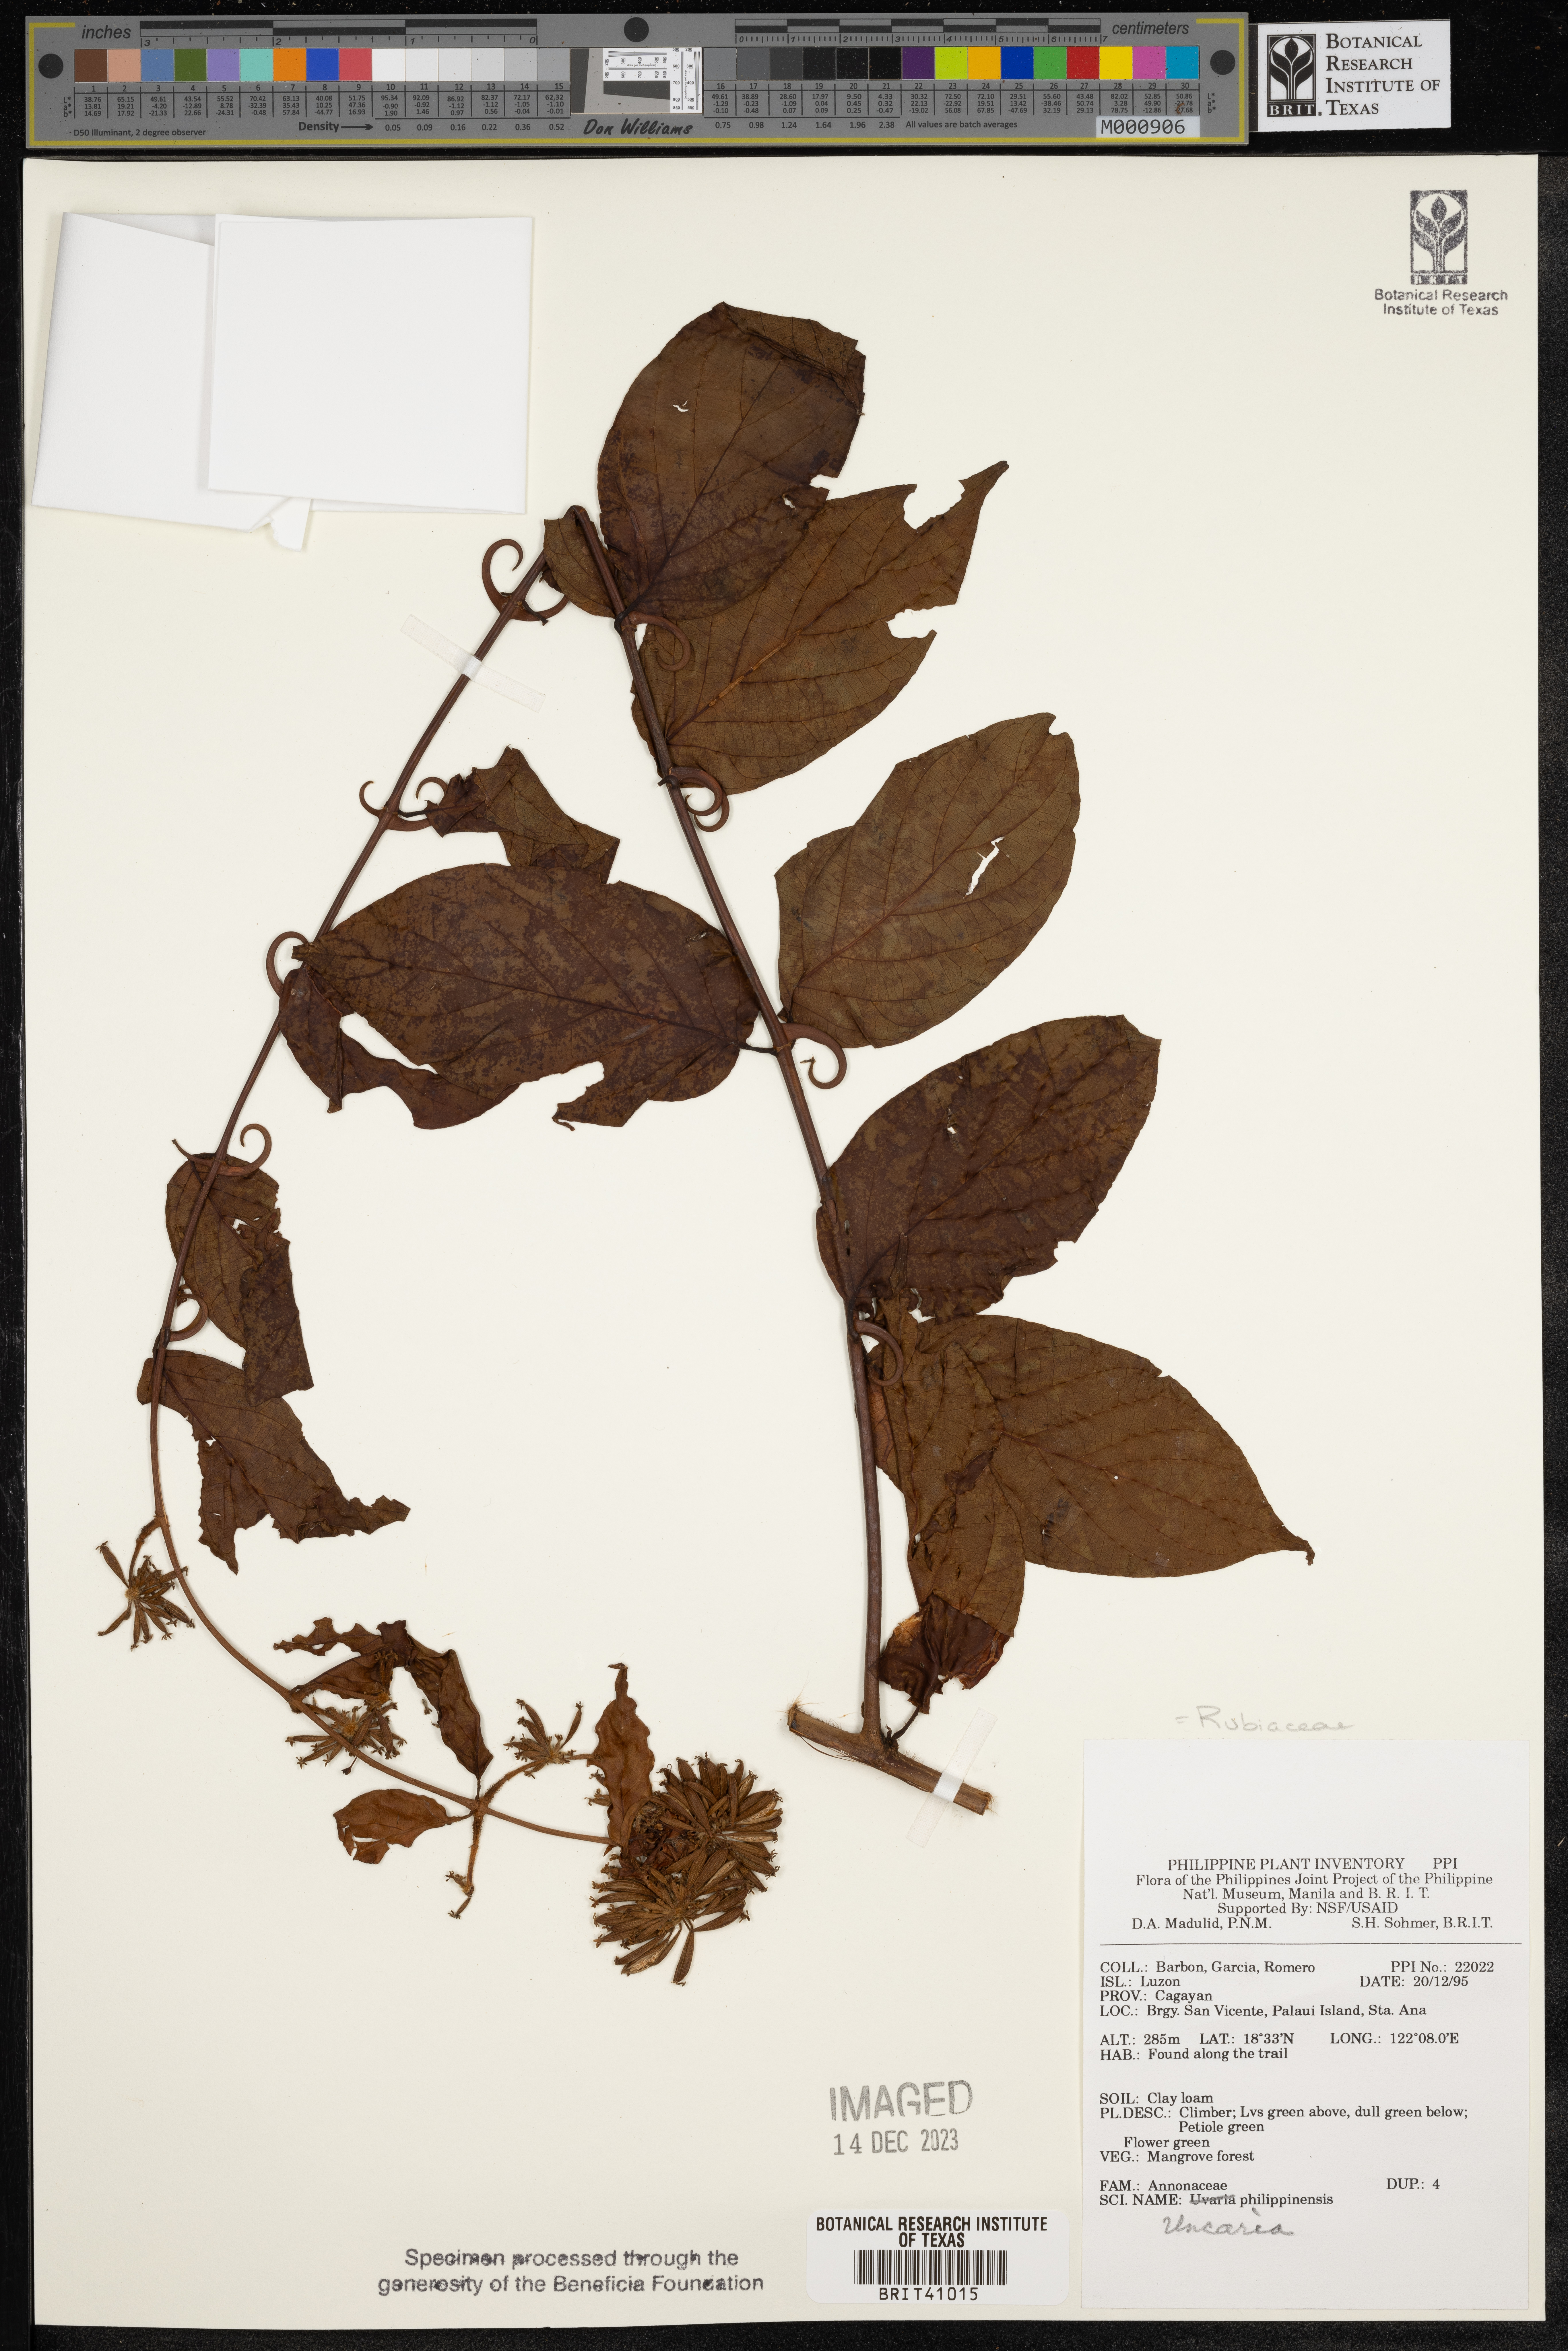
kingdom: Plantae
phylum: Tracheophyta
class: Magnoliopsida
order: Gentianales
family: Rubiaceae
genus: Uncaria
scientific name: Uncaria lanosa
